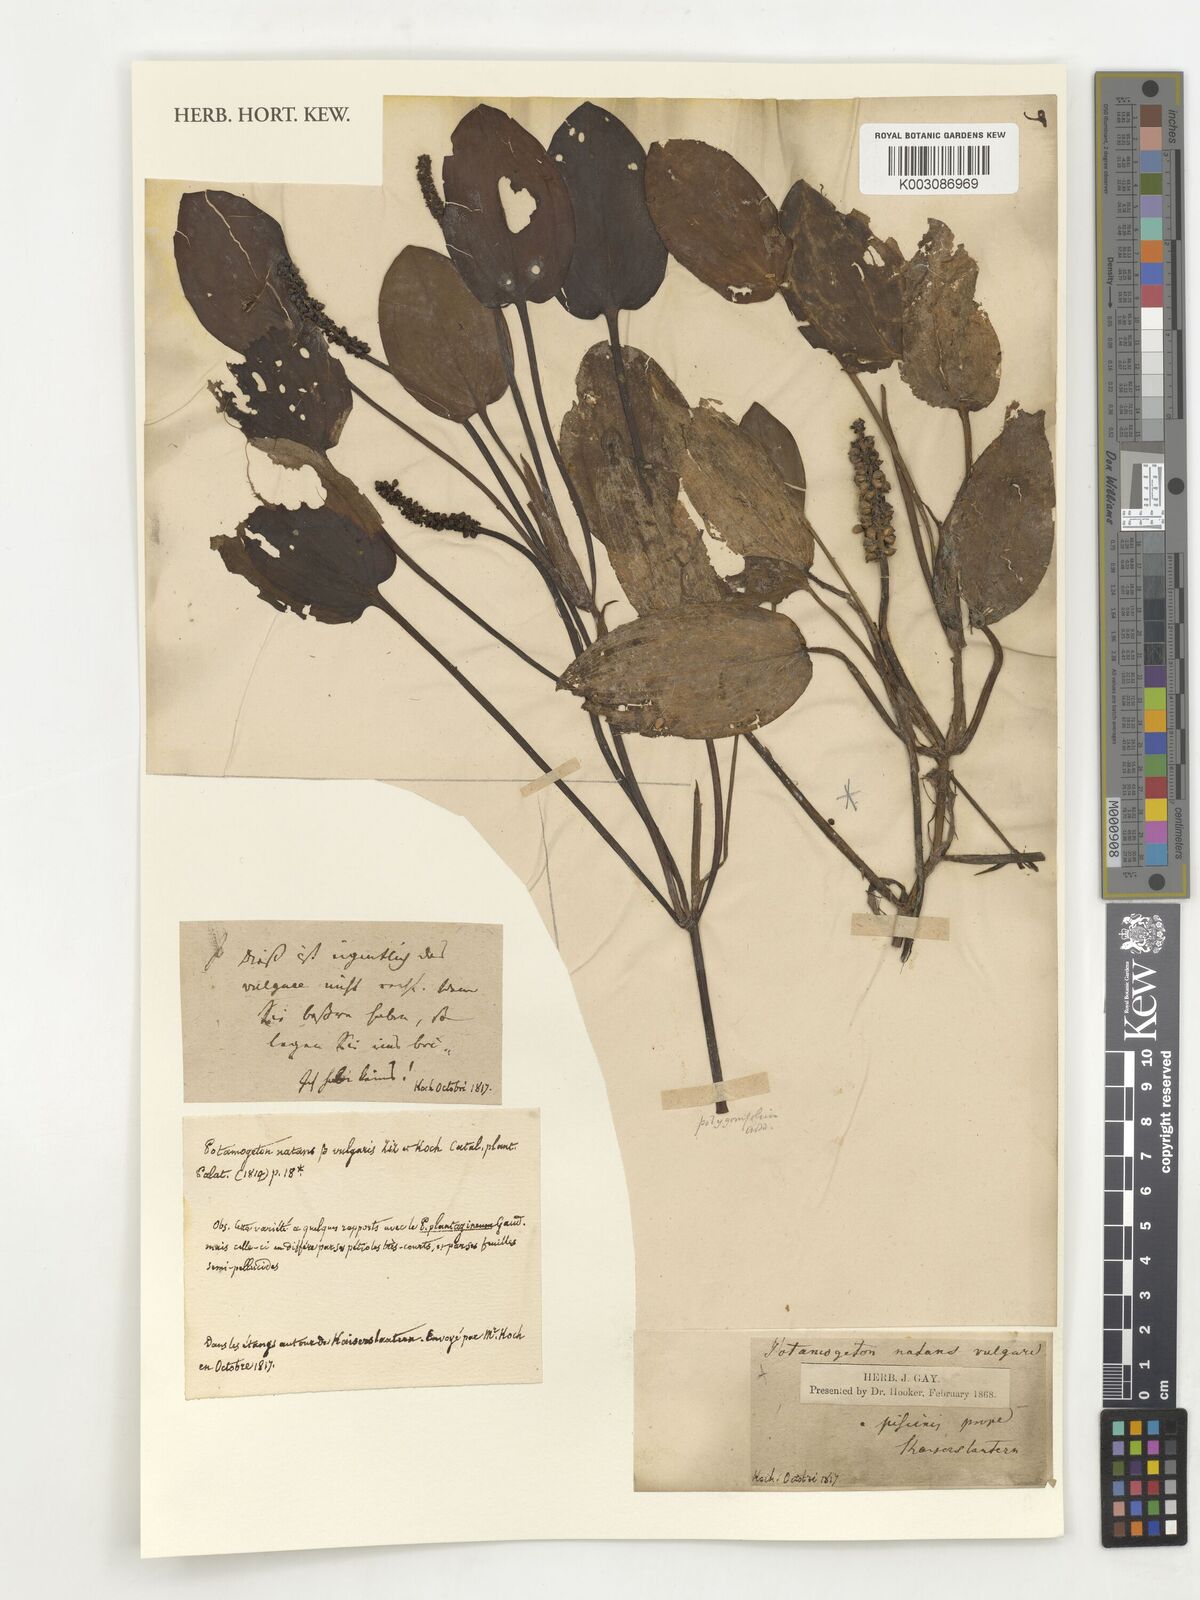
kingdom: Plantae
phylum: Tracheophyta
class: Liliopsida
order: Alismatales
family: Potamogetonaceae
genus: Potamogeton
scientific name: Potamogeton natans
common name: Broad-leaved pondweed
